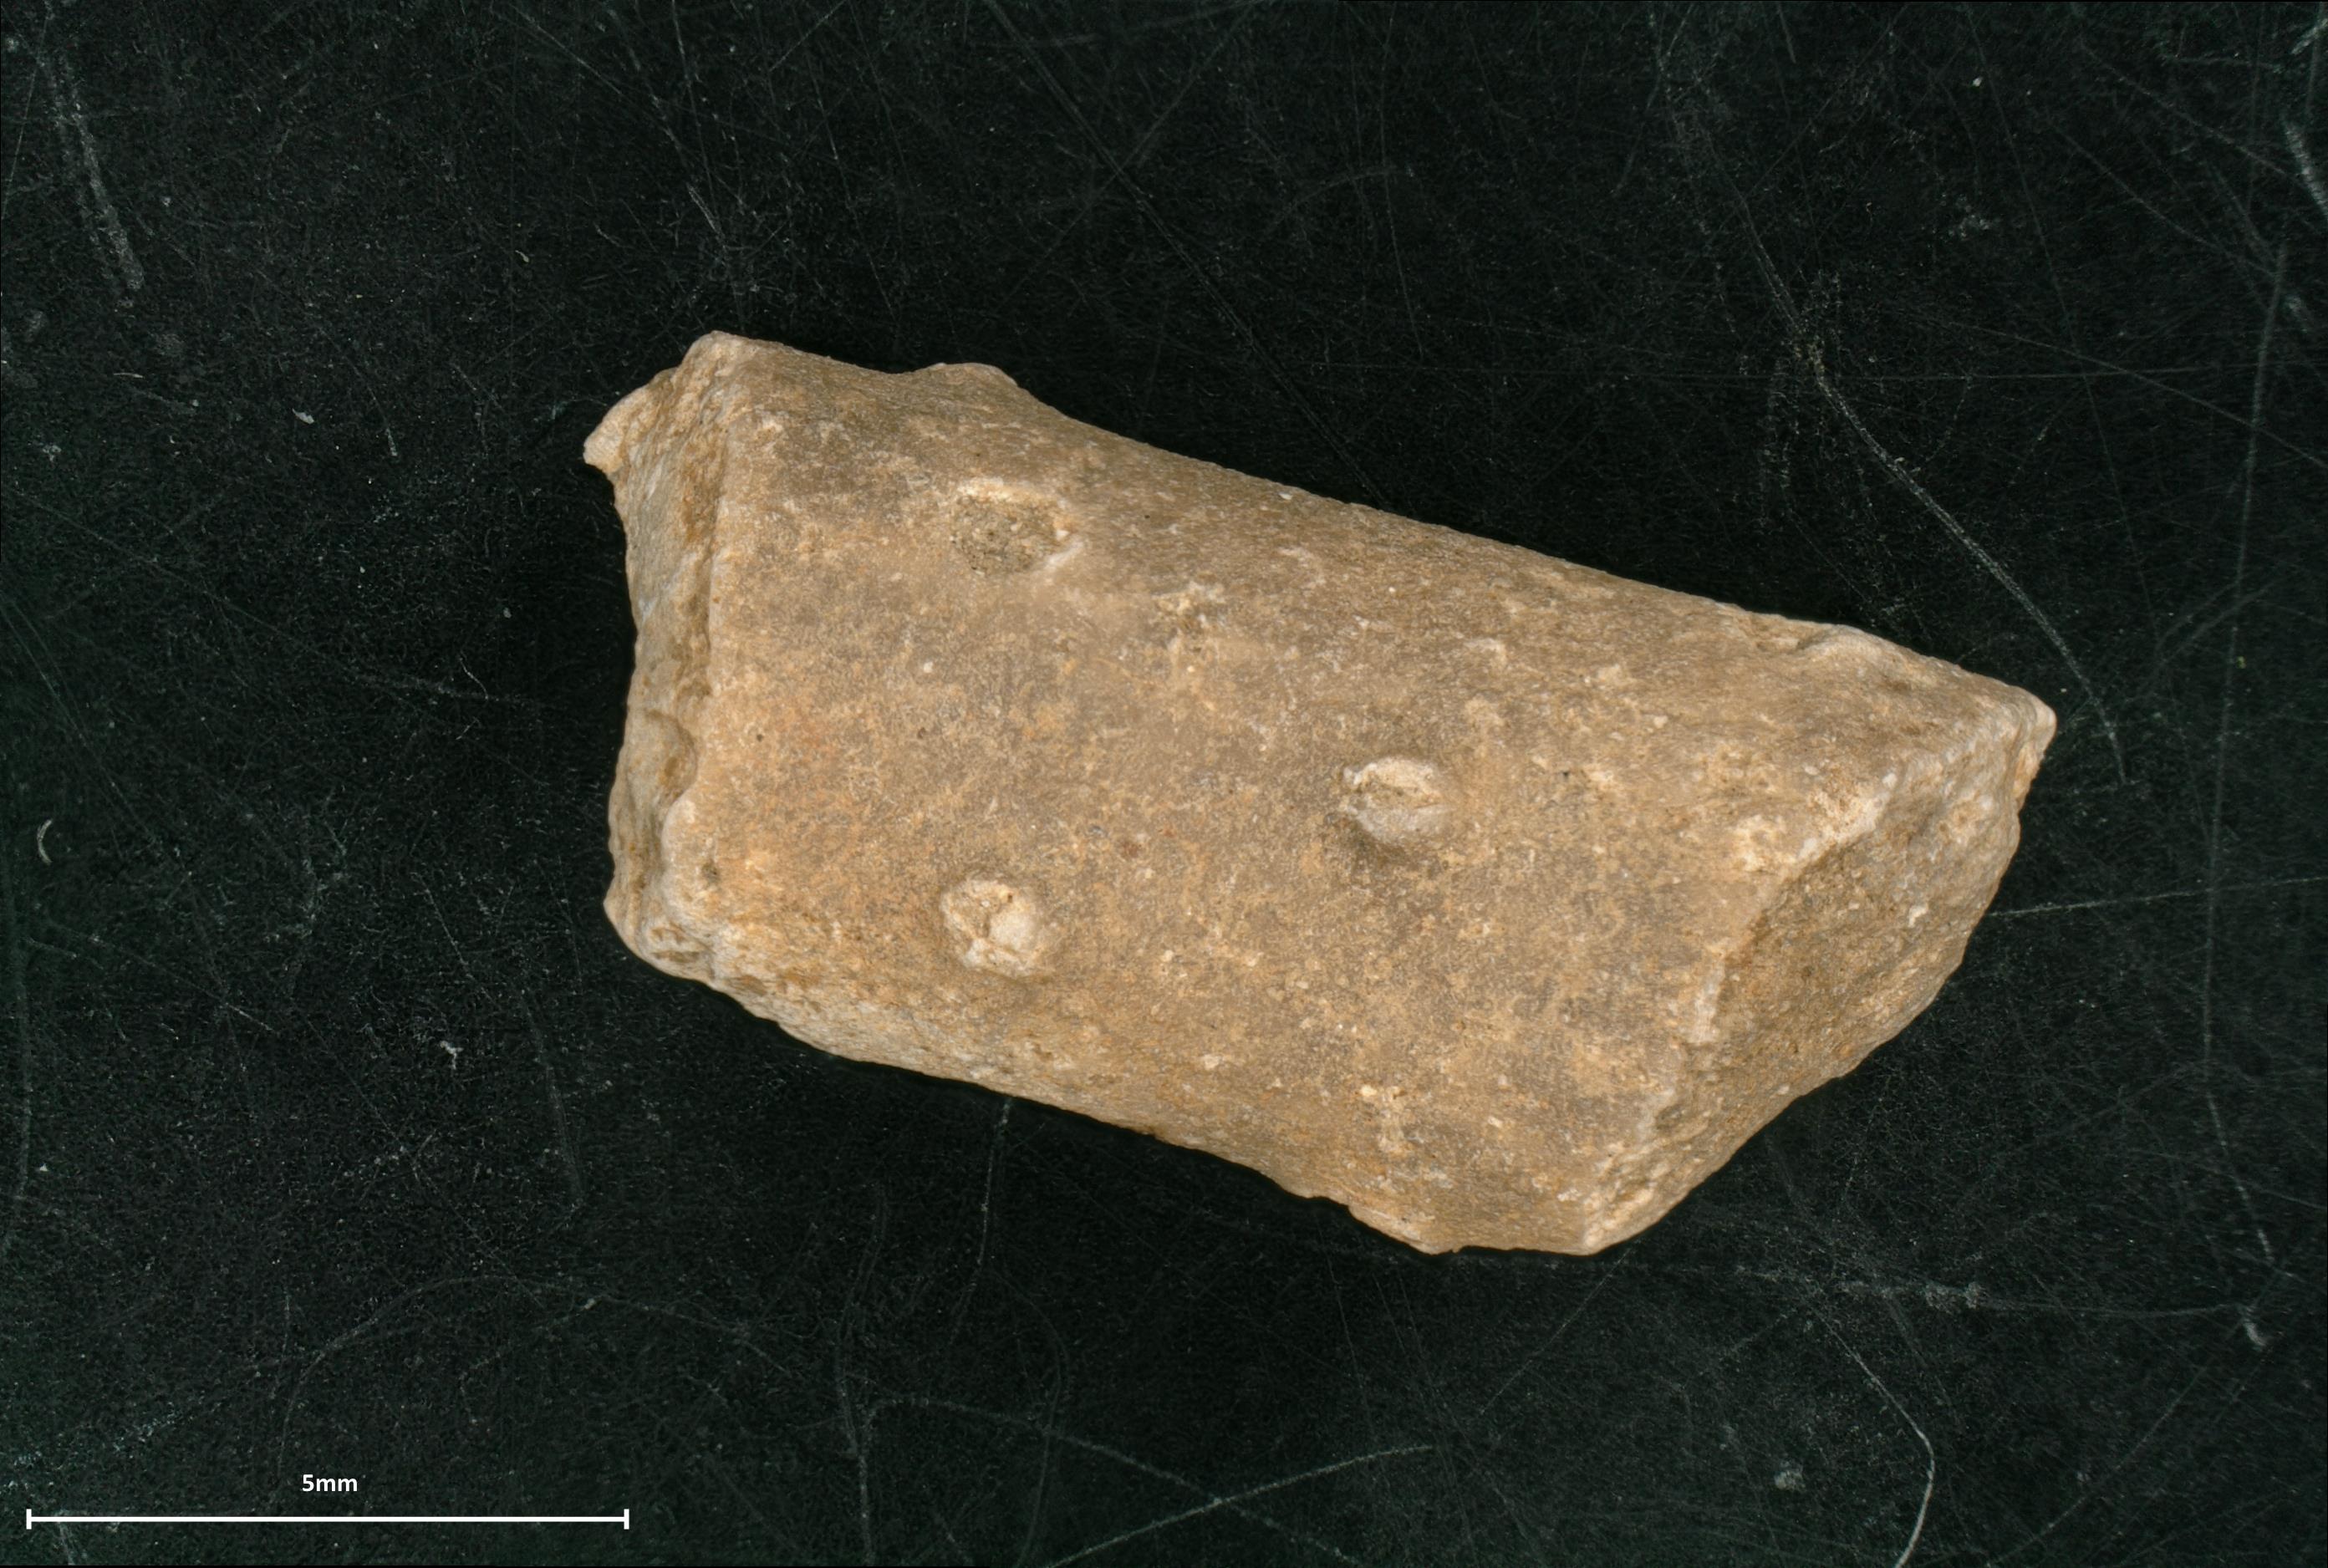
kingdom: Animalia
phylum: Echinodermata
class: Echinoidea
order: Cidaroida
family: Polycidaridae
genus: Polycidaris
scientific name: Polycidaris
